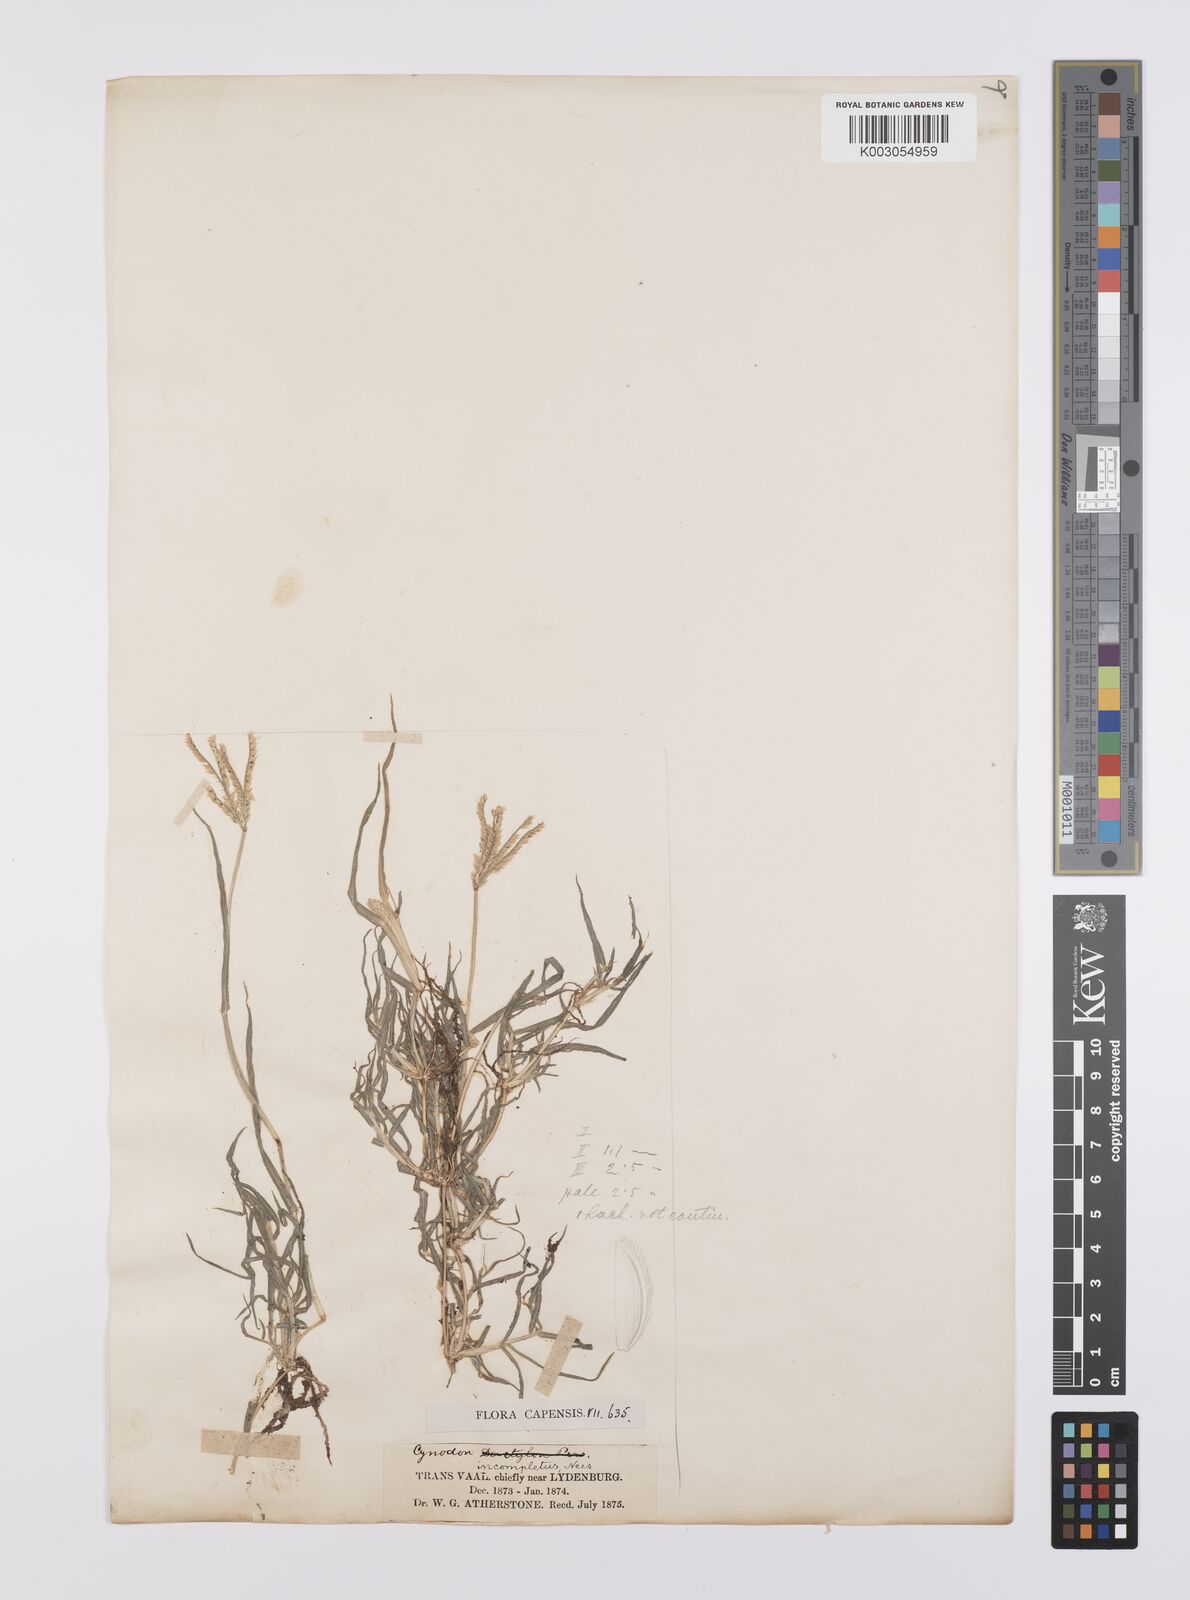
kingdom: Plantae
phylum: Tracheophyta
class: Liliopsida
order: Poales
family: Poaceae
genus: Cynodon
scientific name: Cynodon incompletus
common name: African bermuda-grass
